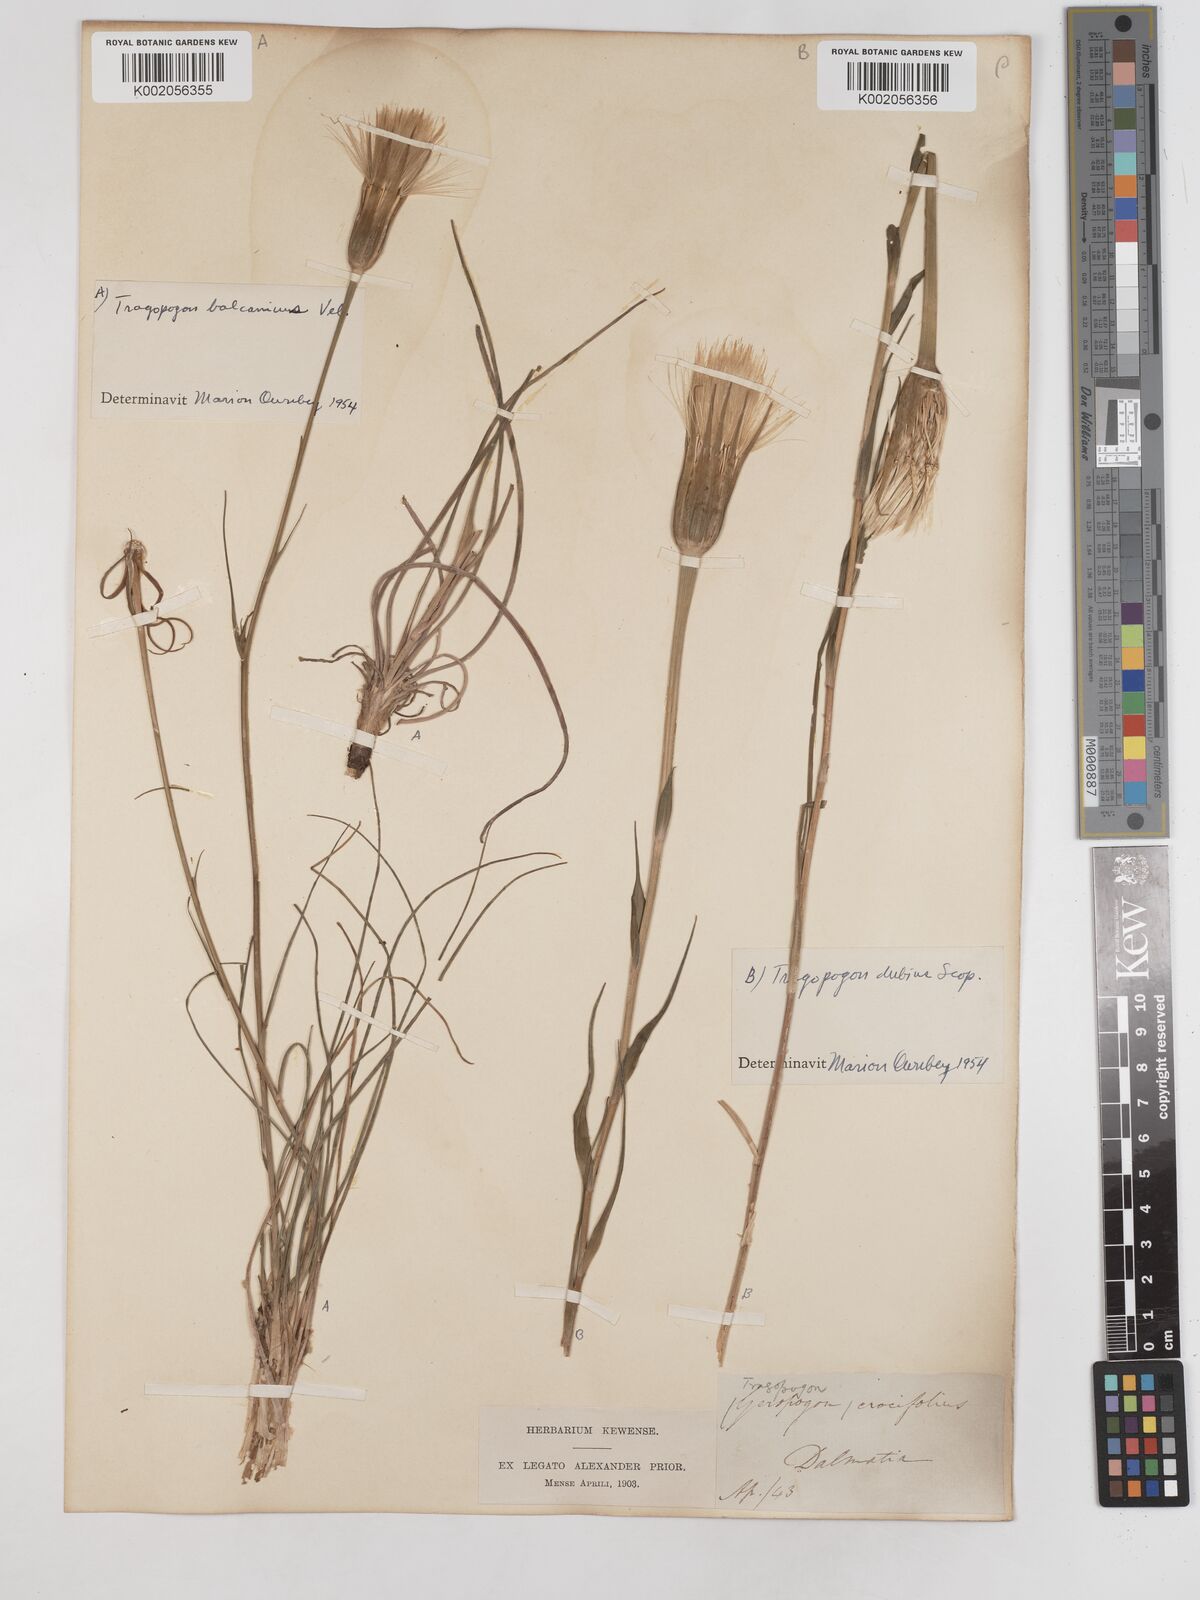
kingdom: Plantae
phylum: Tracheophyta
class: Magnoliopsida
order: Asterales
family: Asteraceae
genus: Tragopogon
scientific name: Tragopogon balcanicus
